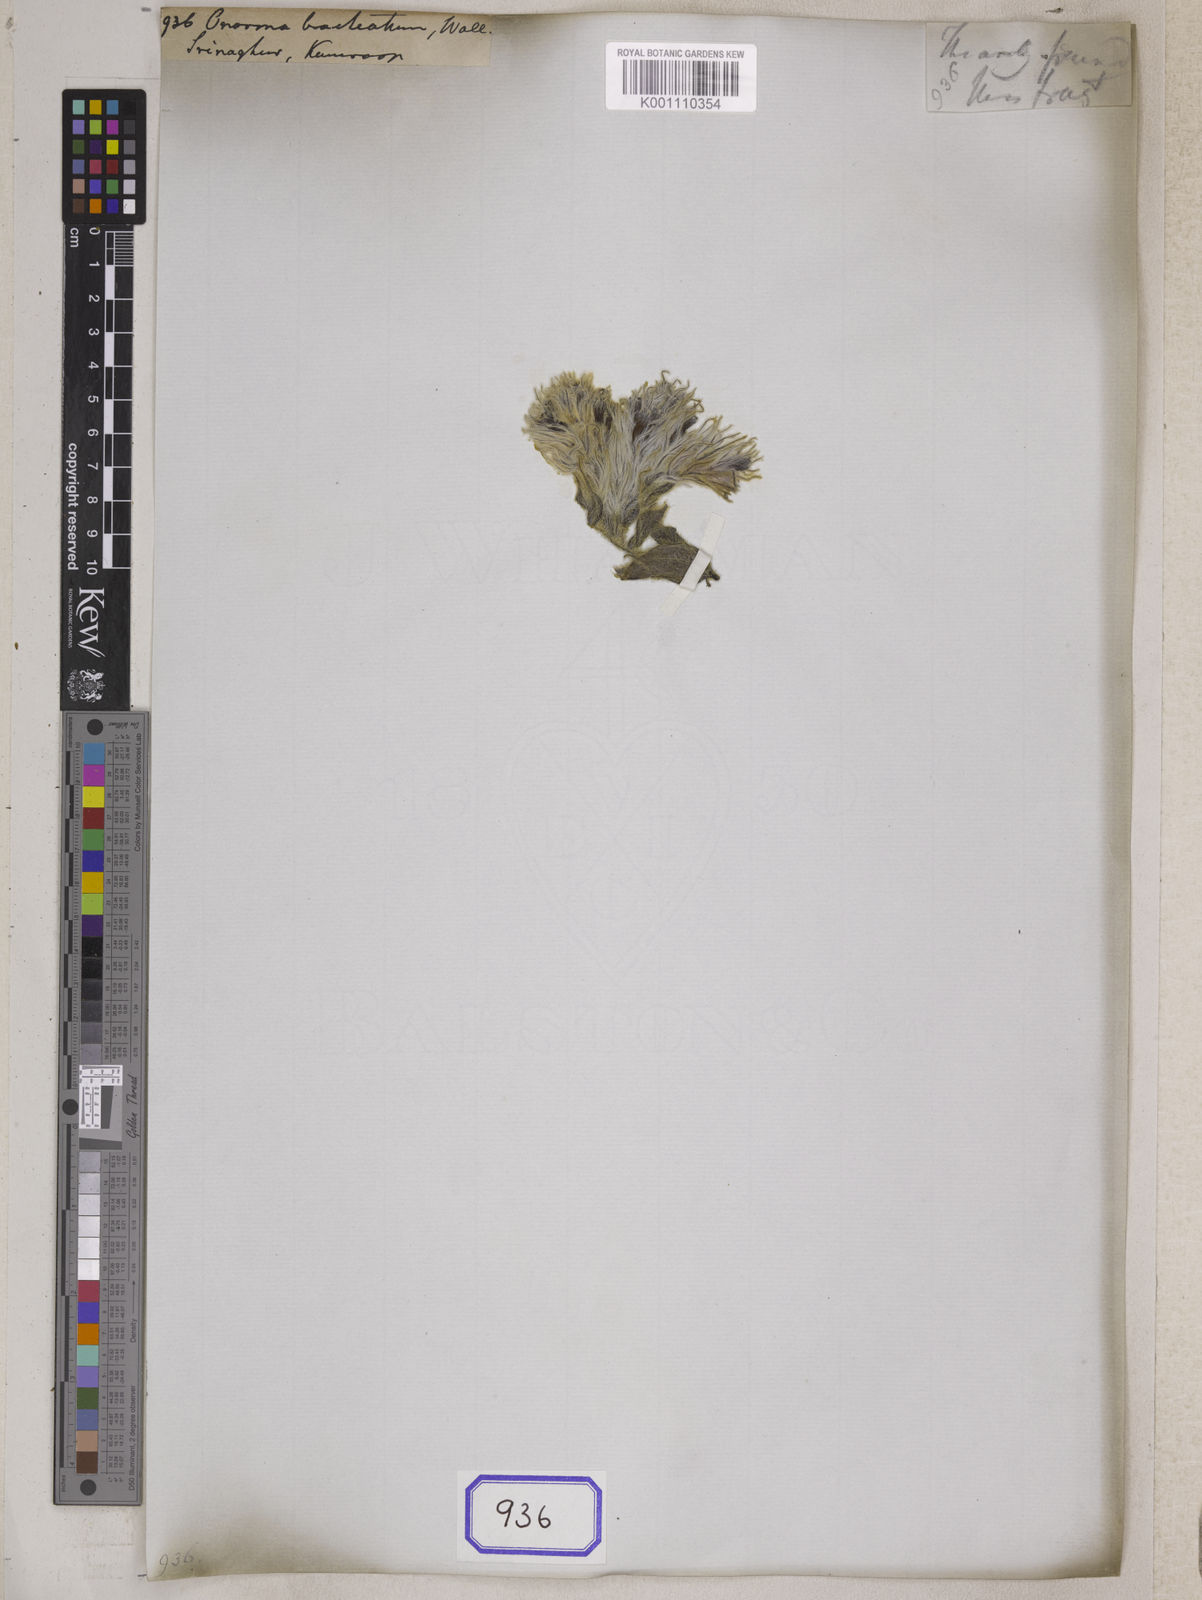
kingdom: Plantae
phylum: Tracheophyta
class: Magnoliopsida
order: Boraginales
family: Boraginaceae
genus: Maharanga
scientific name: Maharanga bracteata
